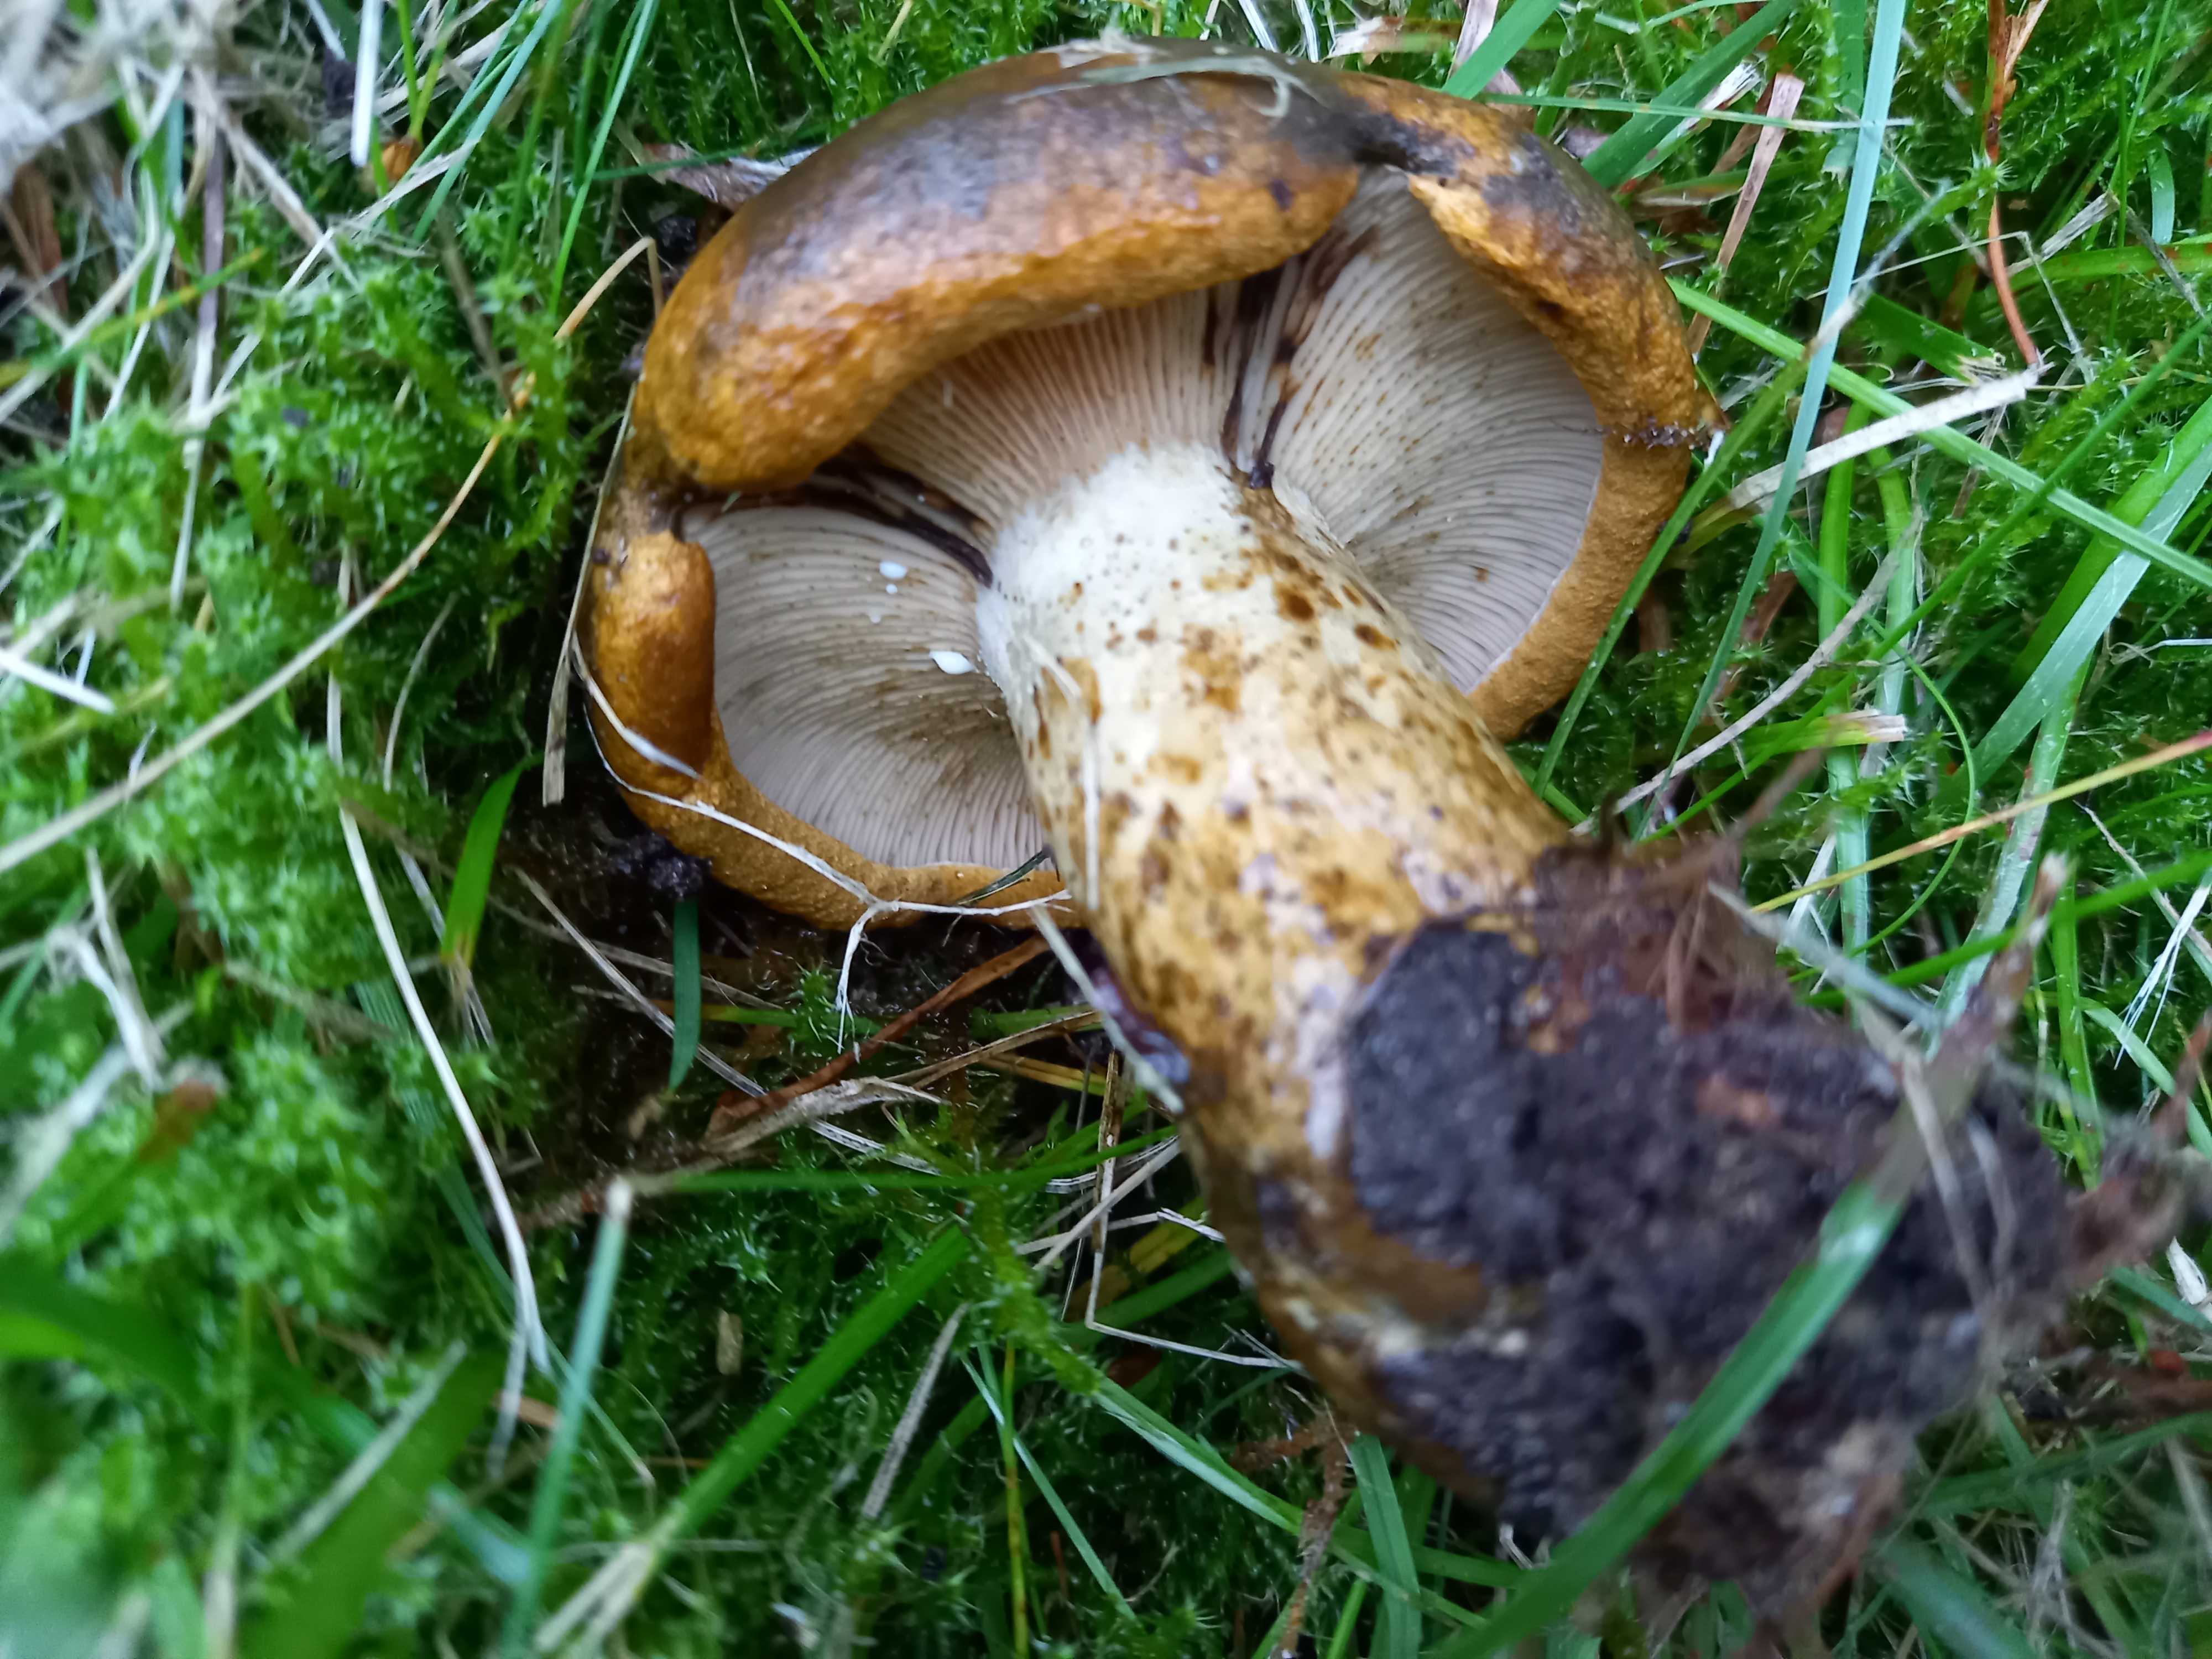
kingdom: Fungi
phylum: Basidiomycota
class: Agaricomycetes
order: Russulales
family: Russulaceae
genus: Lactarius
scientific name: Lactarius necator
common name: manddraber-mælkehat
